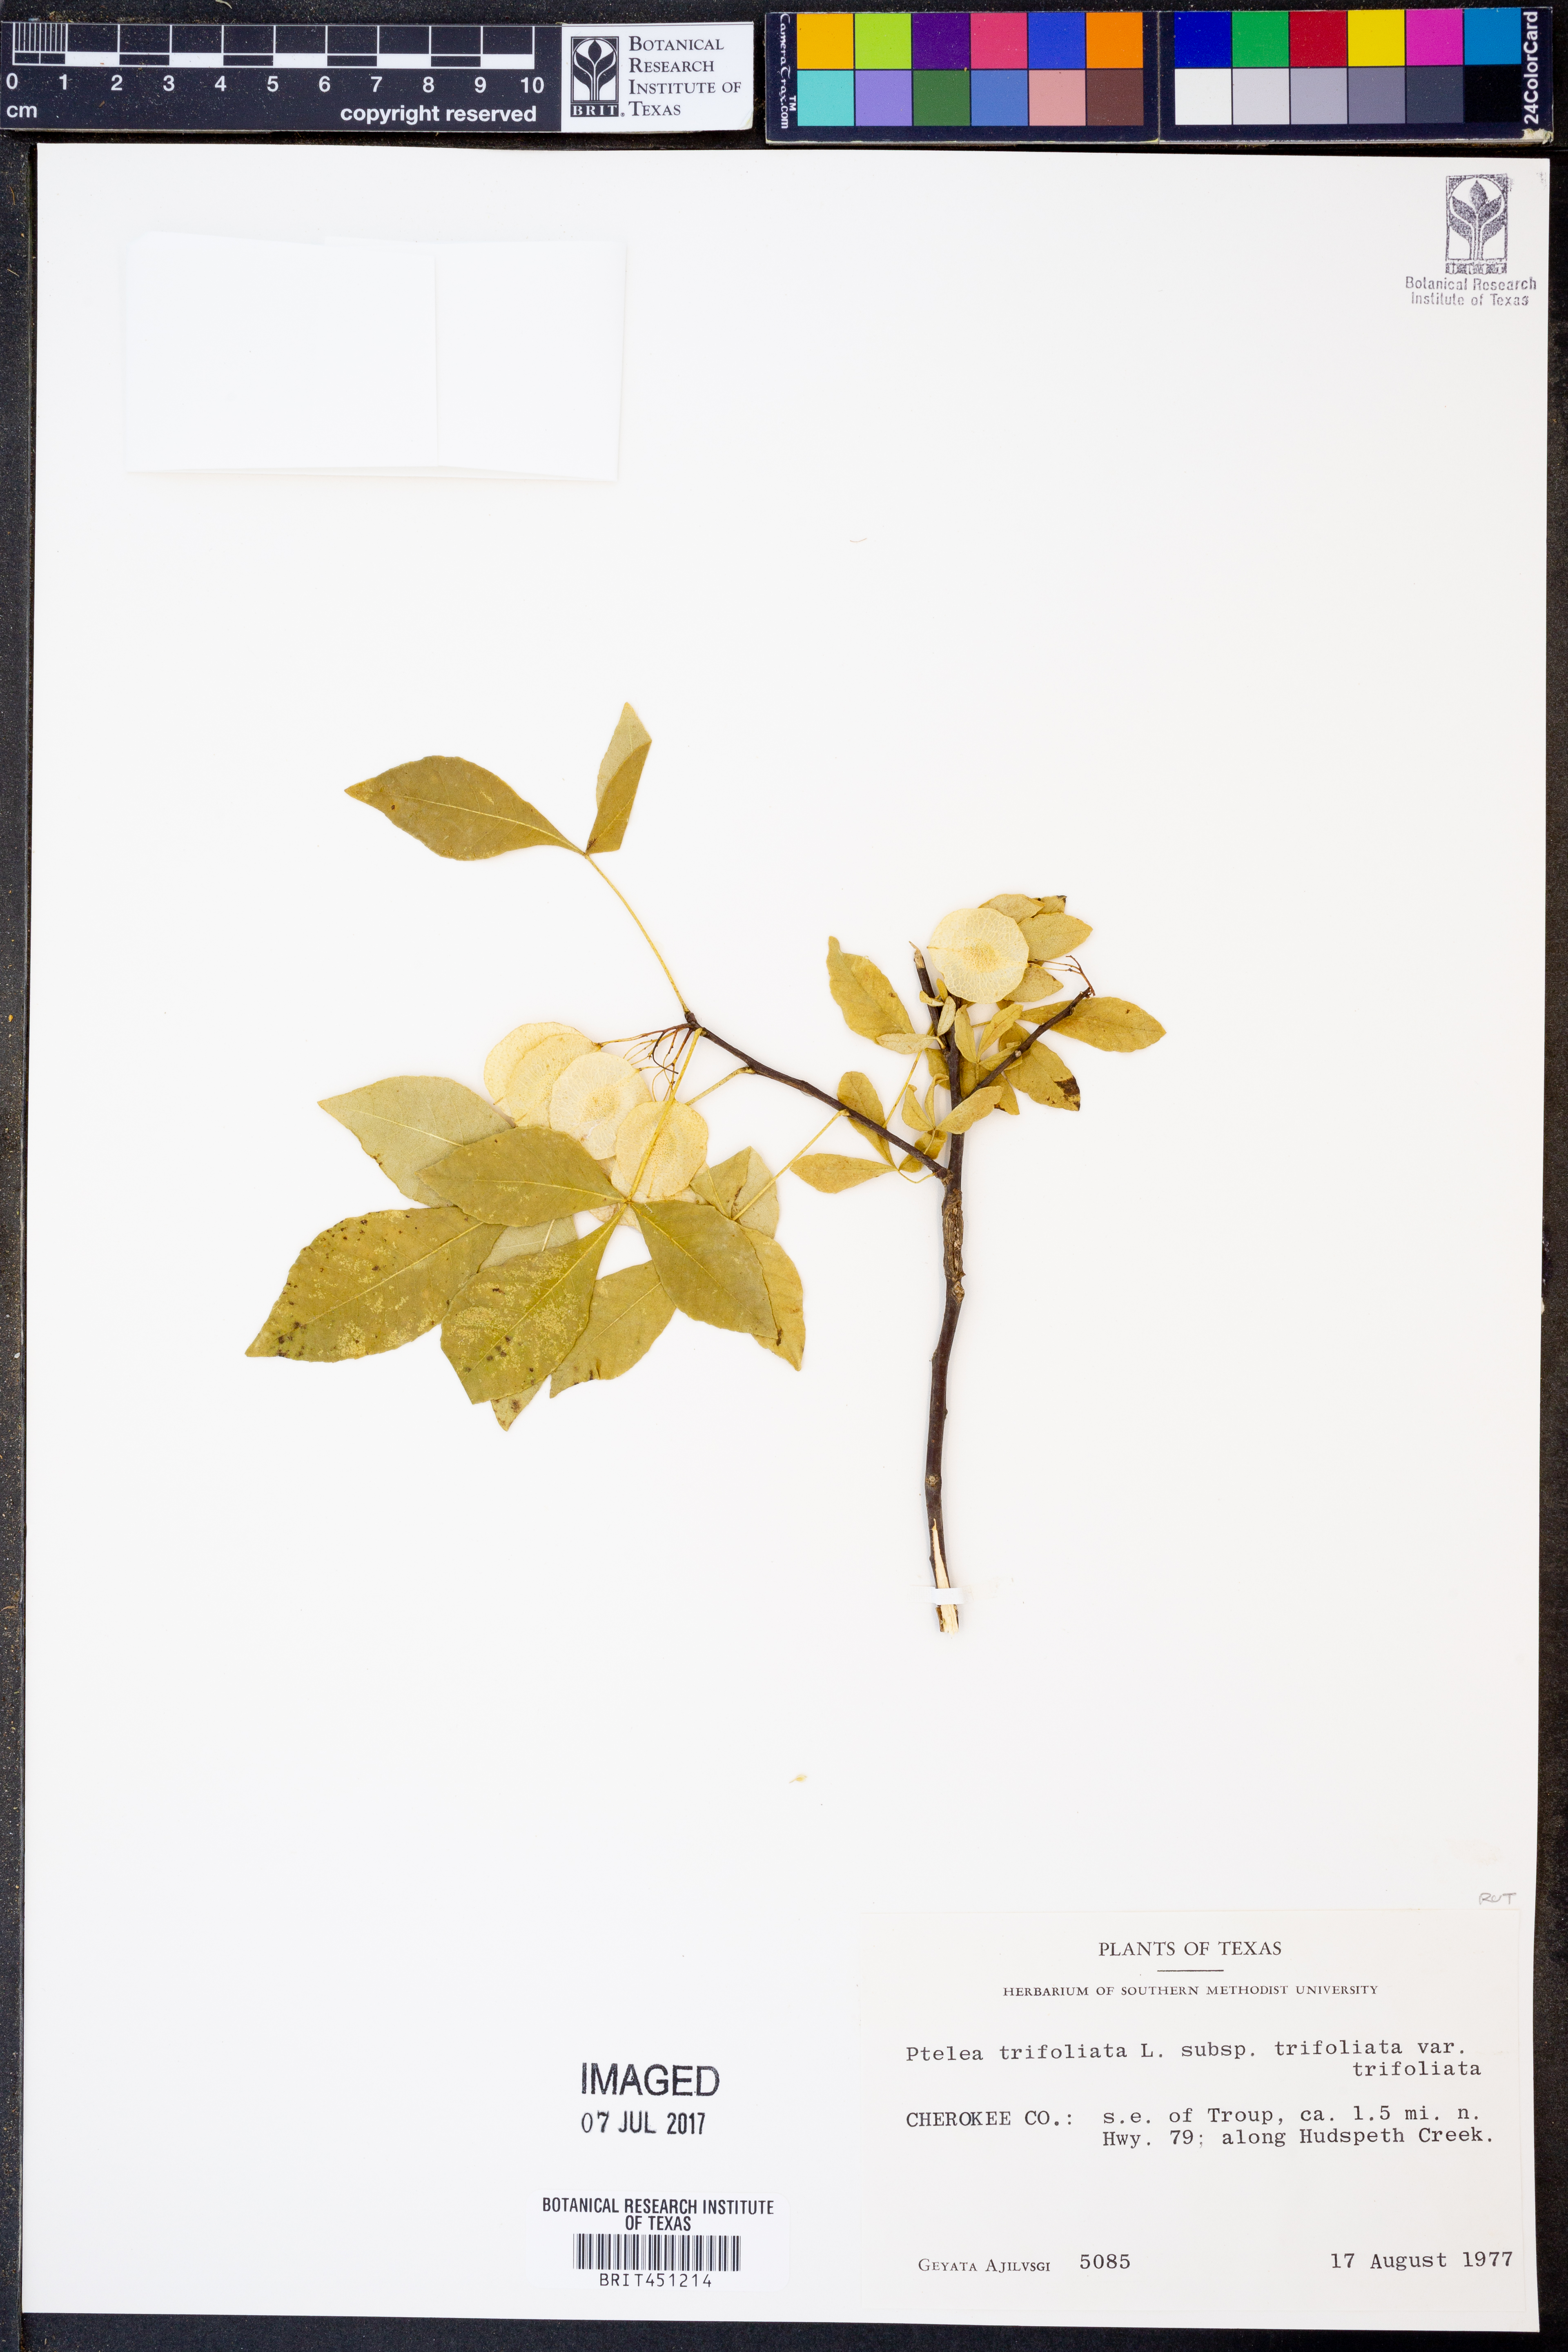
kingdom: Plantae
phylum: Tracheophyta
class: Magnoliopsida
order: Sapindales
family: Rutaceae
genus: Ptelea
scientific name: Ptelea trifoliata
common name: Common hop-tree
